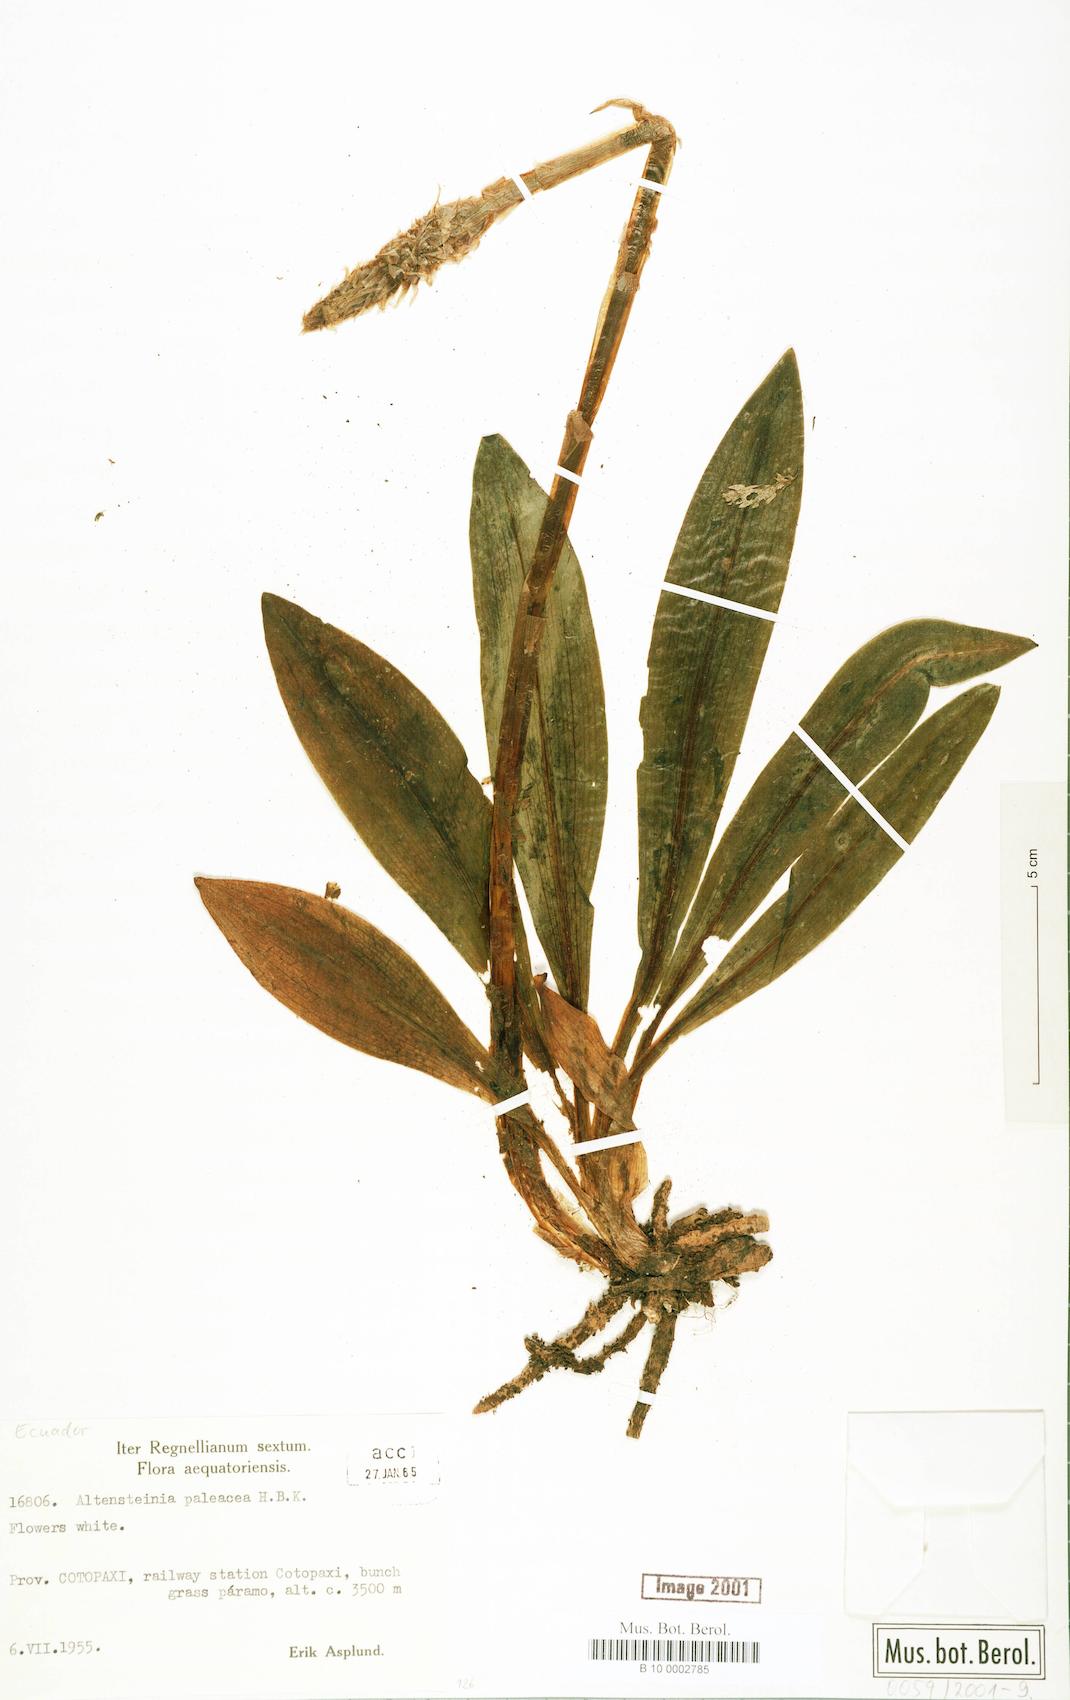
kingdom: Plantae
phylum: Tracheophyta
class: Liliopsida
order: Asparagales
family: Orchidaceae
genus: Aa
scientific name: Aa paleacea
